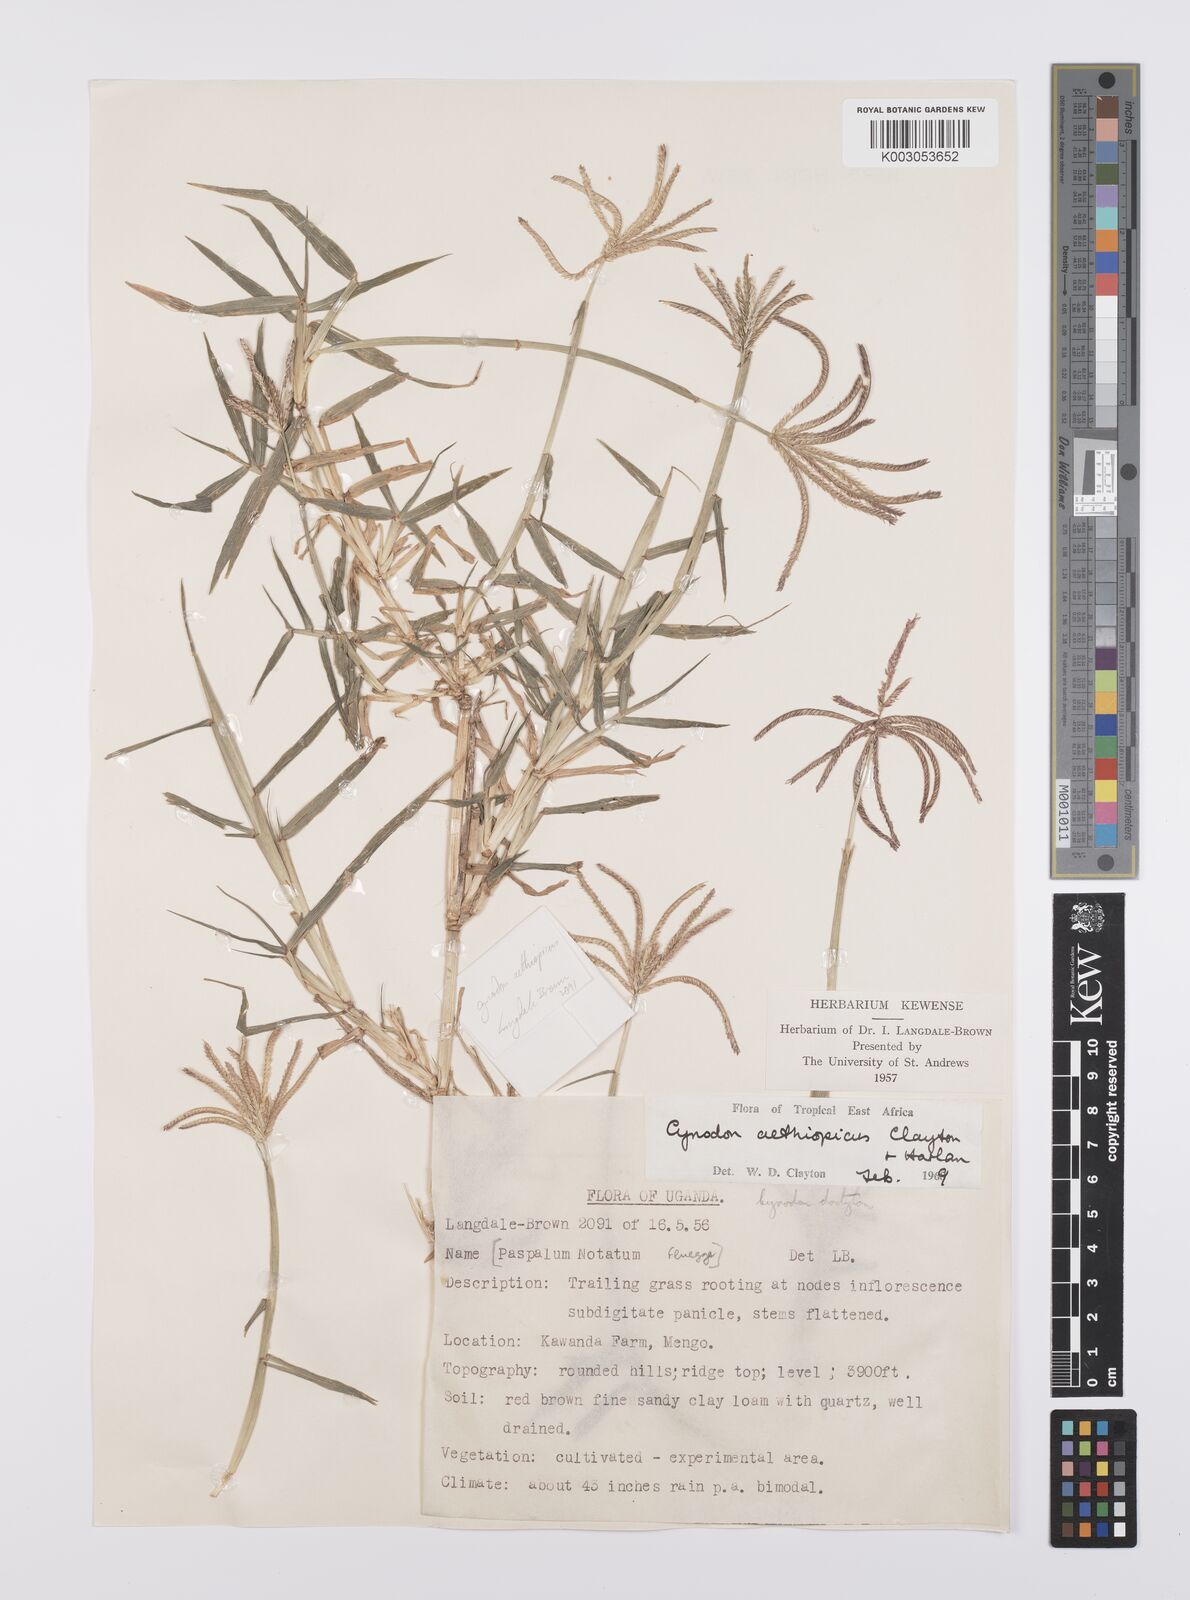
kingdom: Plantae
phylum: Tracheophyta
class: Liliopsida
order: Poales
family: Poaceae
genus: Cynodon
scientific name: Cynodon aethiopicus
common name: Ethiopian dogstooth grass
